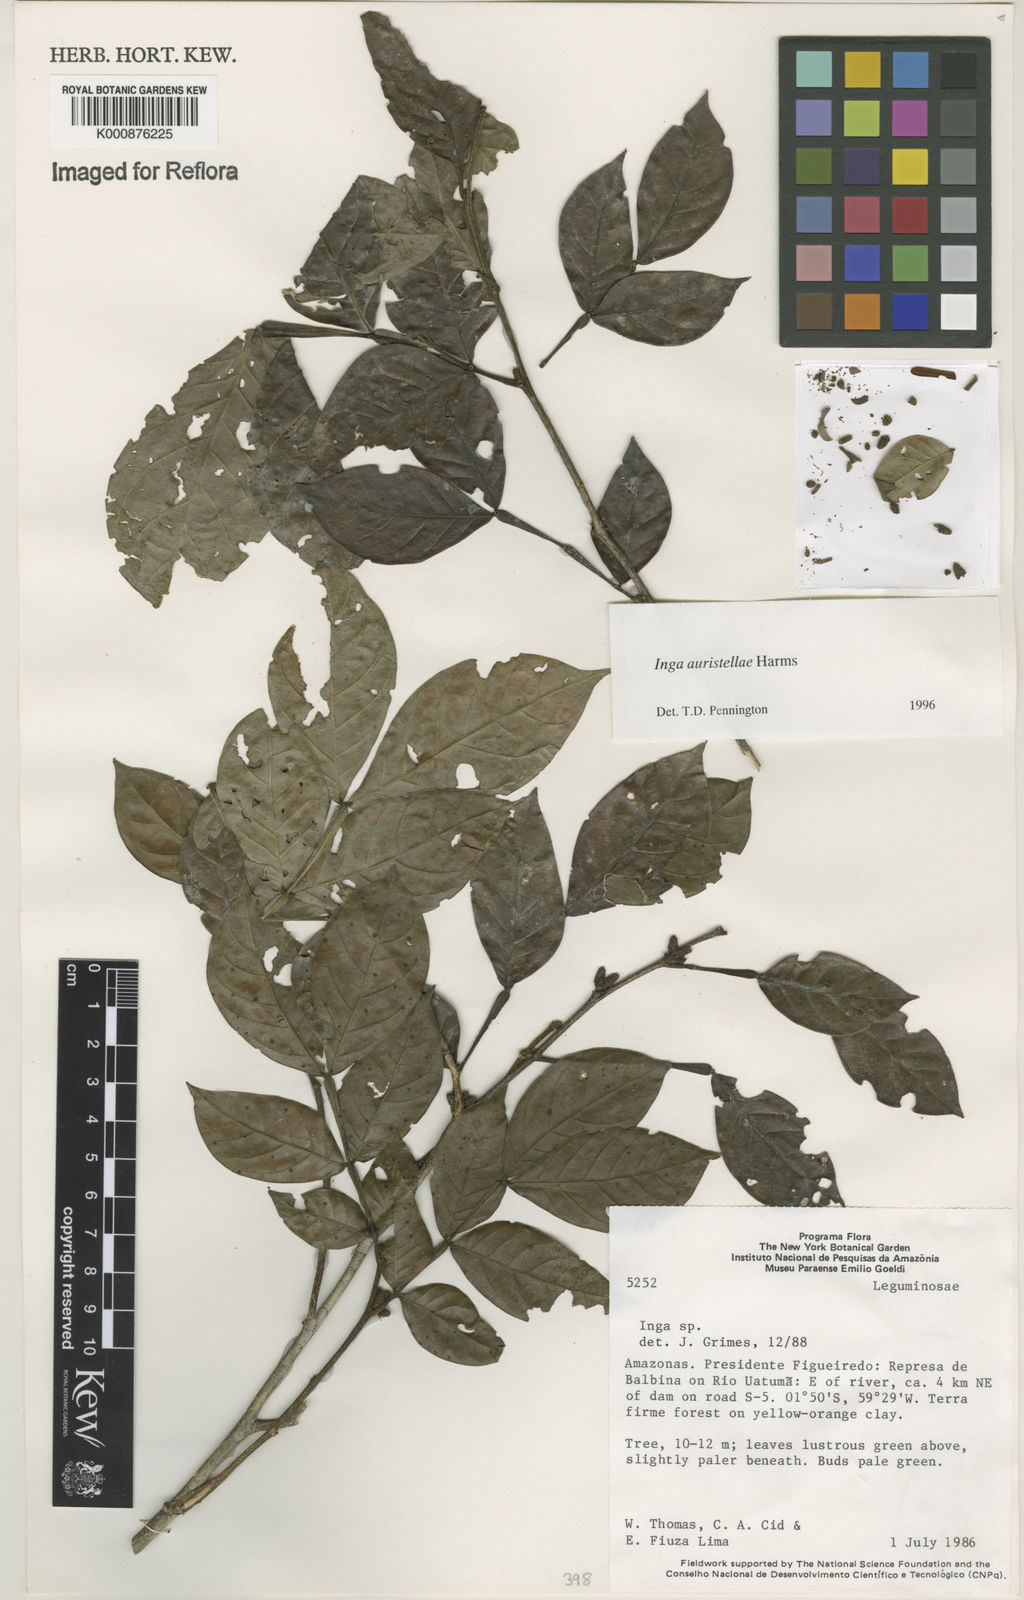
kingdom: Plantae
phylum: Tracheophyta
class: Magnoliopsida
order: Fabales
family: Fabaceae
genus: Inga
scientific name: Inga auristellae
